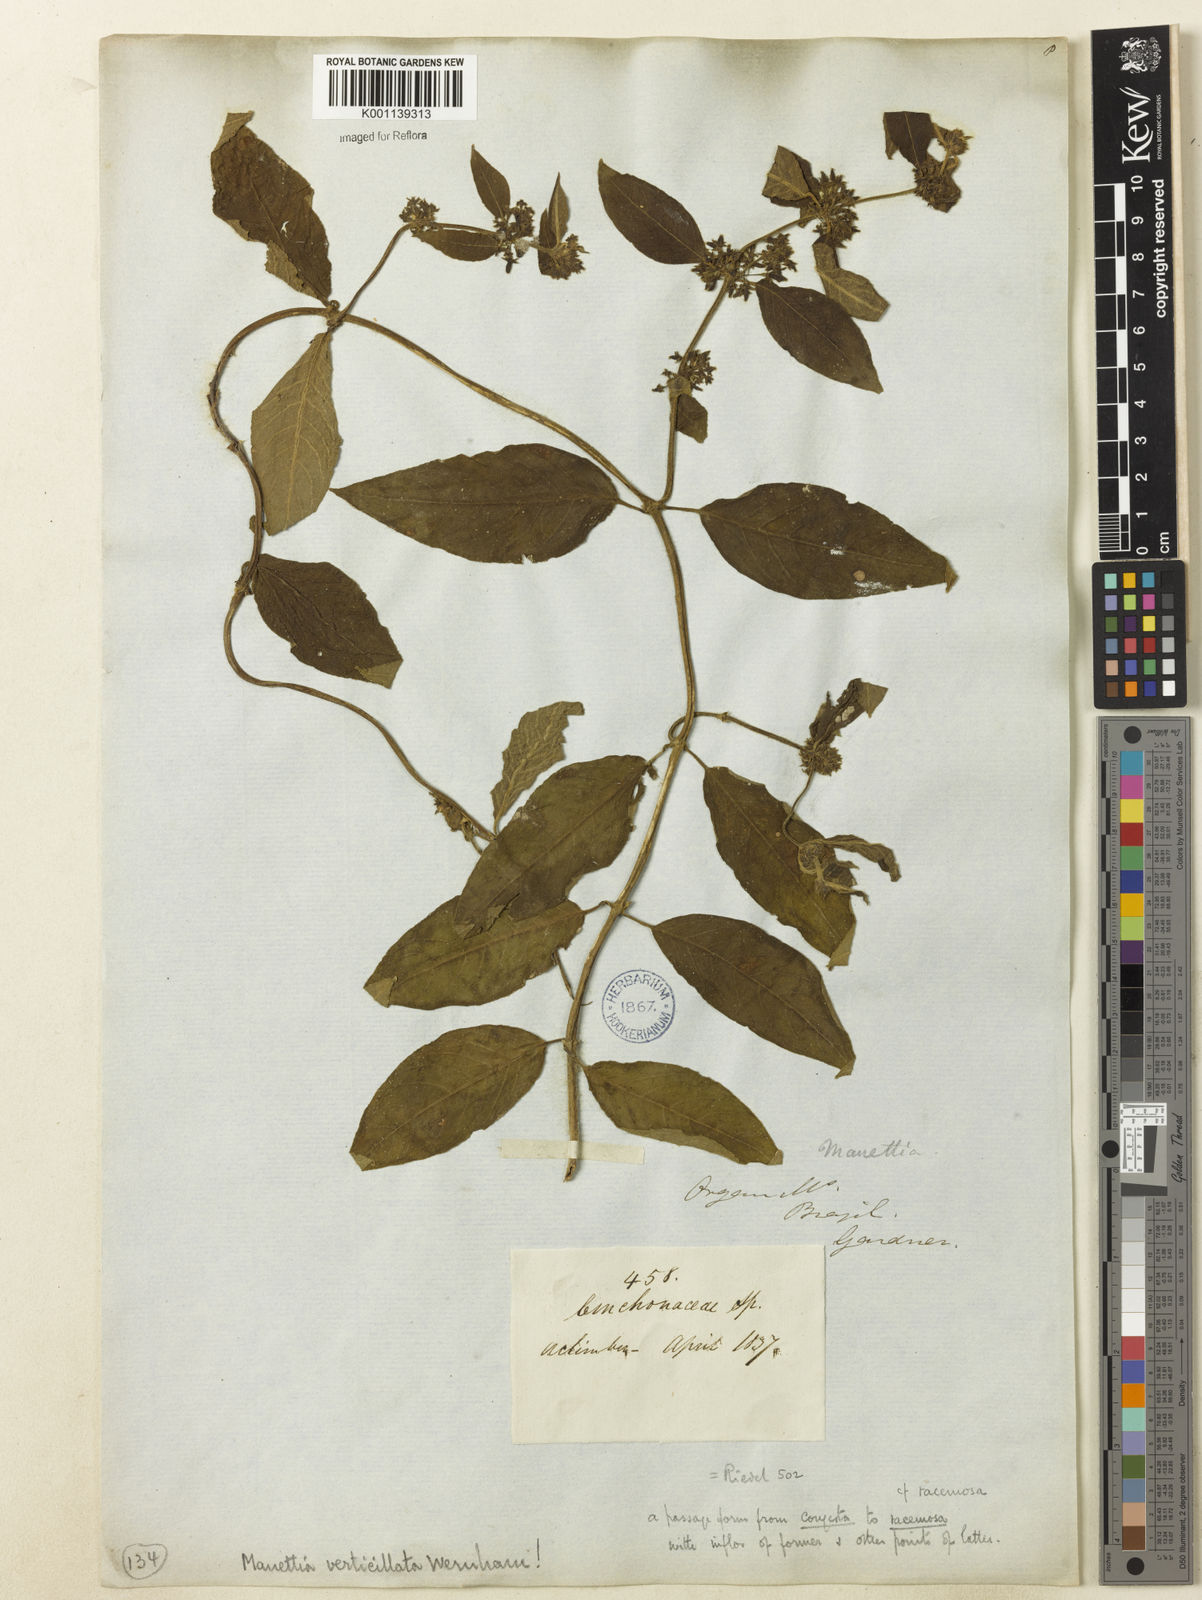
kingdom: Plantae
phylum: Tracheophyta
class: Magnoliopsida
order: Gentianales
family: Rubiaceae
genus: Manettia
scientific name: Manettia verticillata
